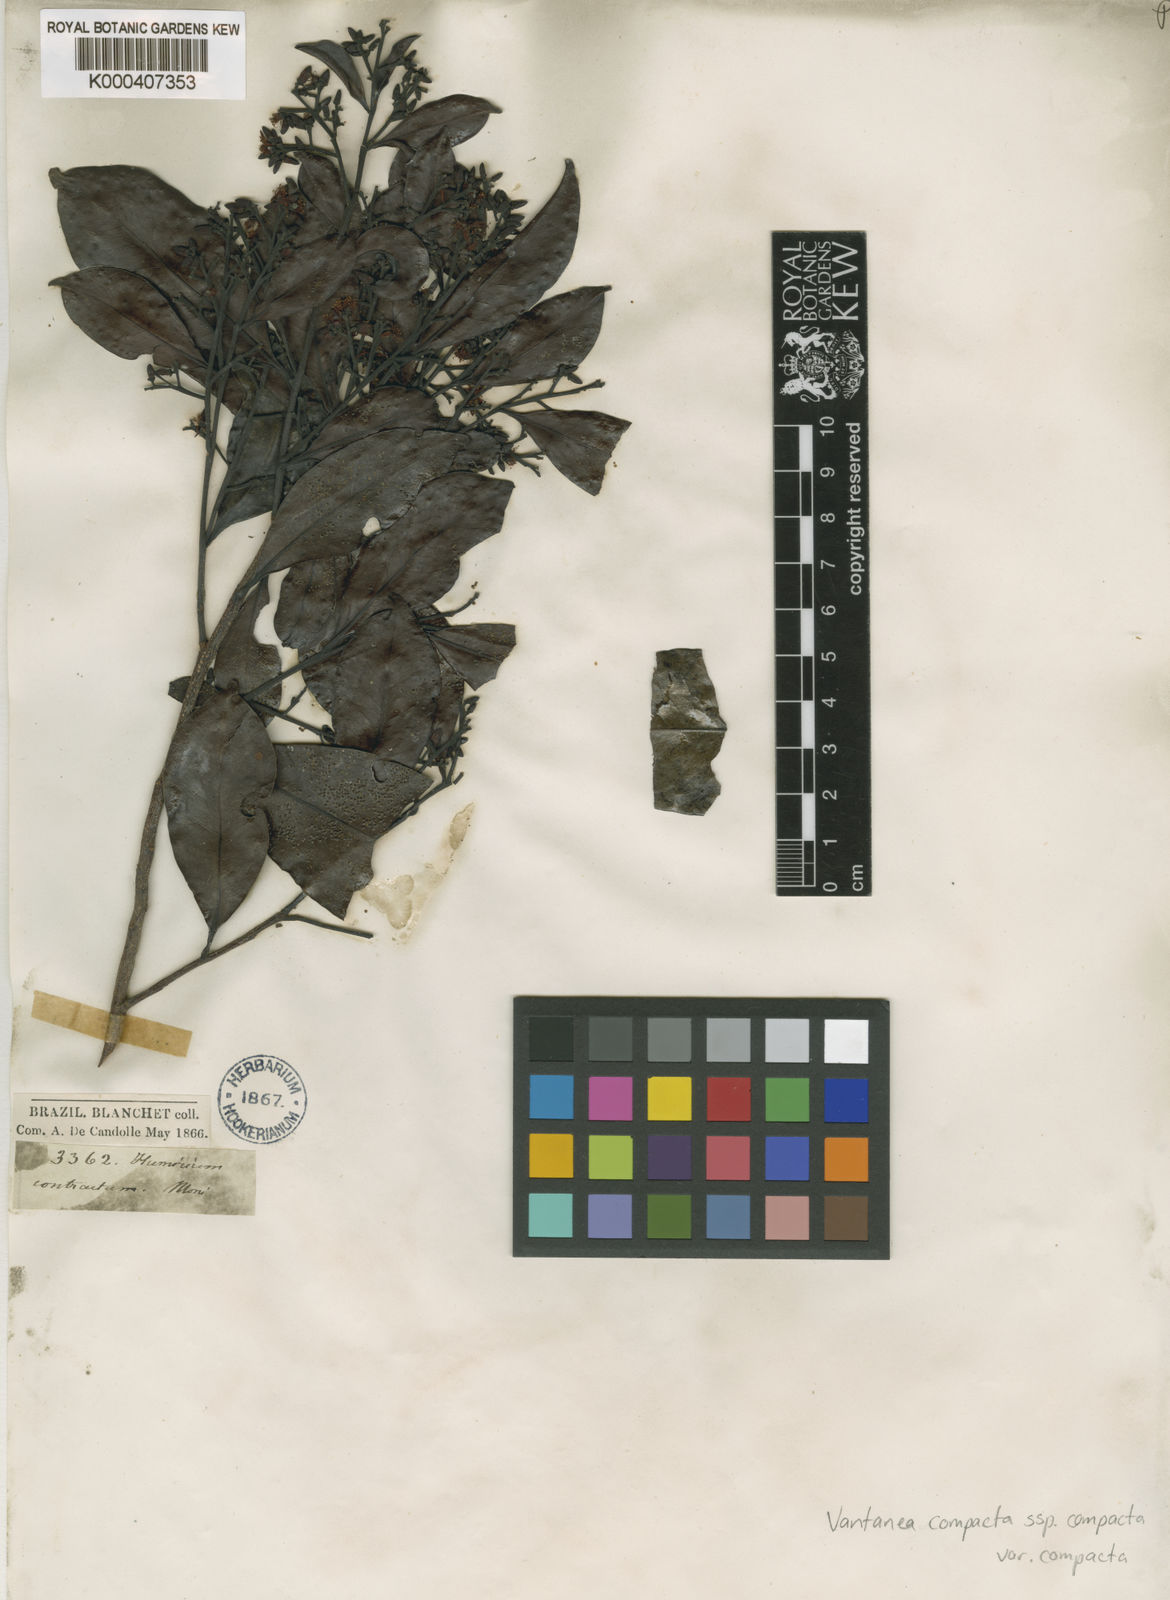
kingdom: Plantae
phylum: Tracheophyta
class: Magnoliopsida
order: Malpighiales
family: Humiriaceae
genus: Vantanea
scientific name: Vantanea compacta
